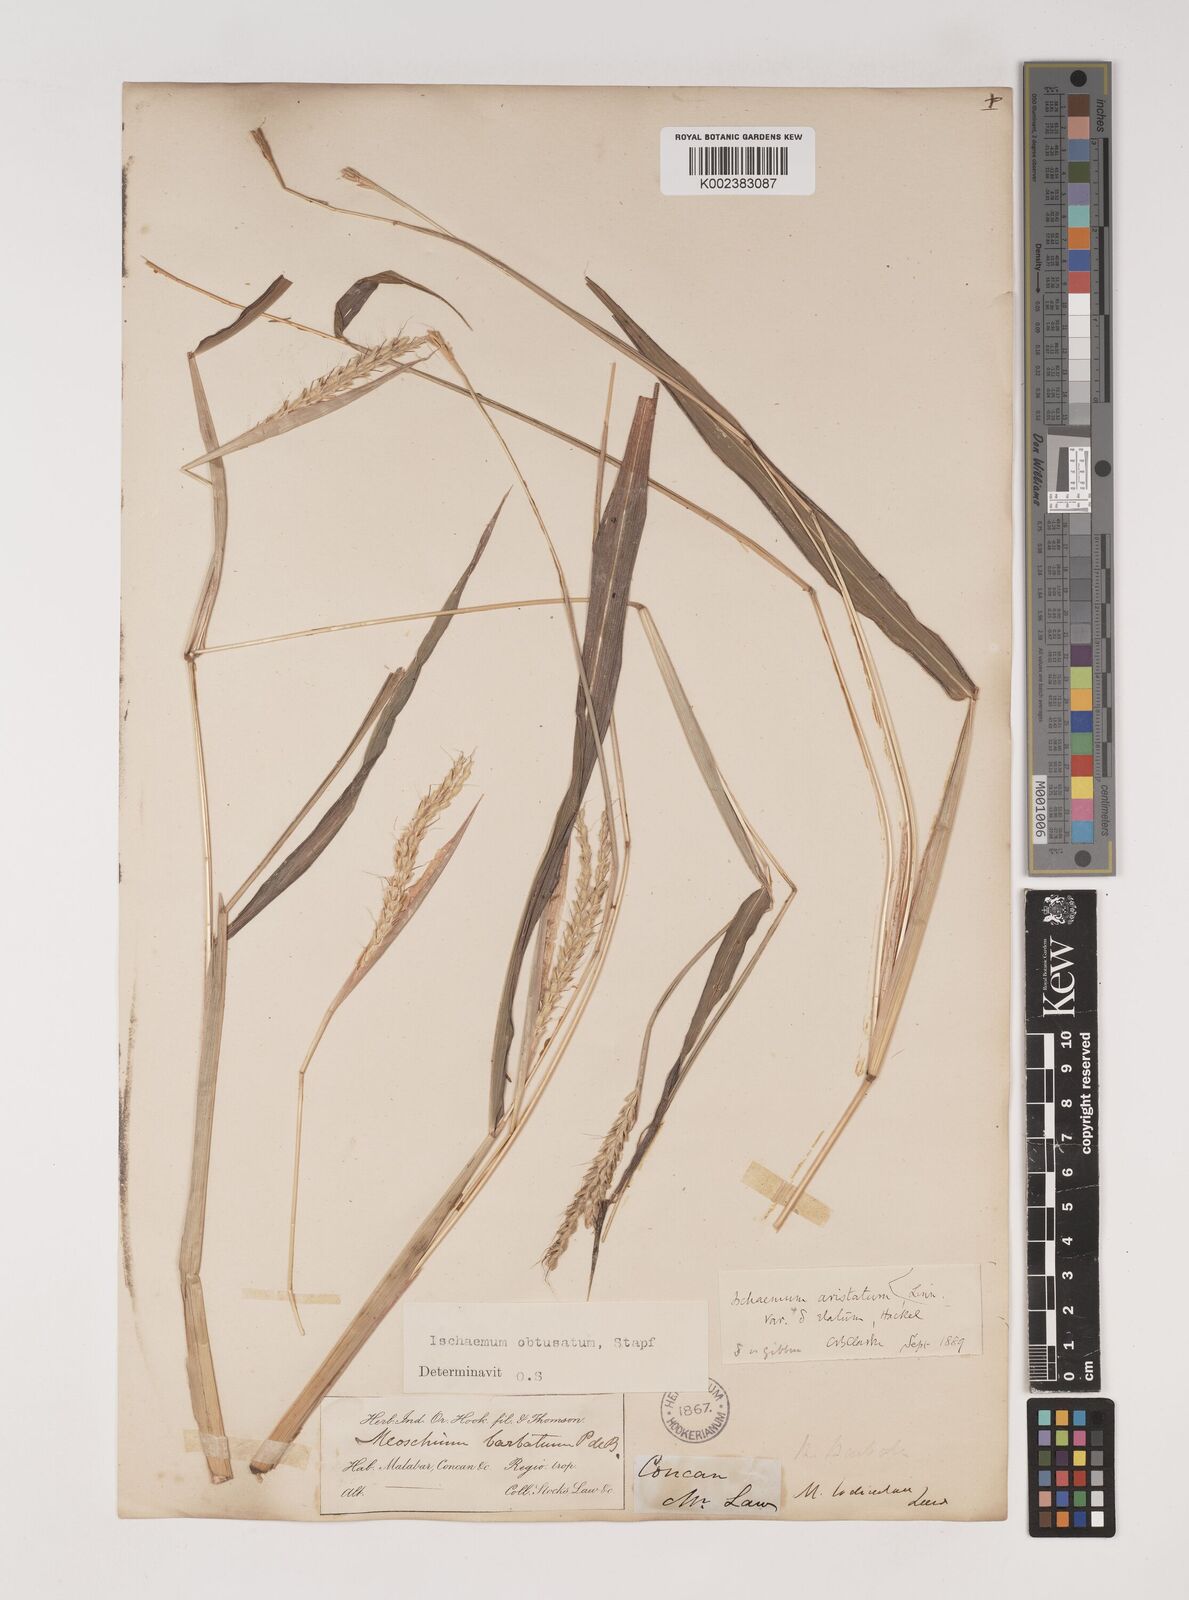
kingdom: Plantae
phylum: Tracheophyta
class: Liliopsida
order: Poales
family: Poaceae
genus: Ischaemum
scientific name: Ischaemum molle
